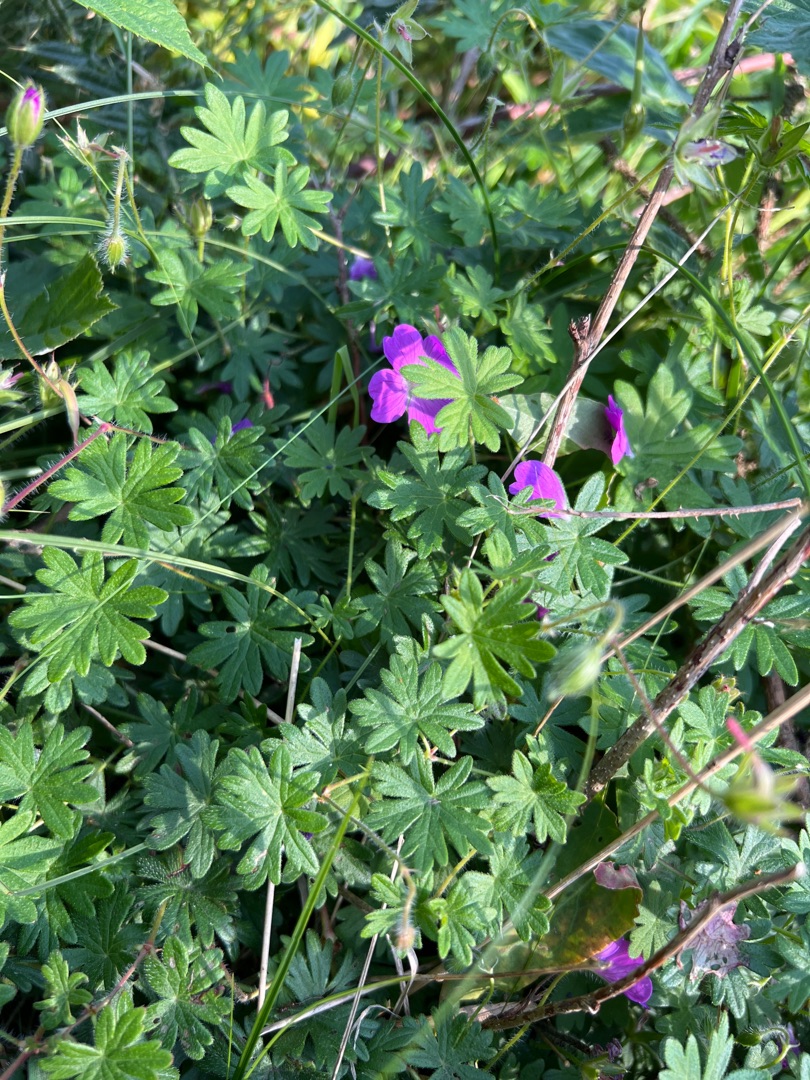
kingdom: Plantae
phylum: Tracheophyta
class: Magnoliopsida
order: Geraniales
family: Geraniaceae
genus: Geranium
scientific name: Geranium sanguineum
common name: Blodrød storkenæb
